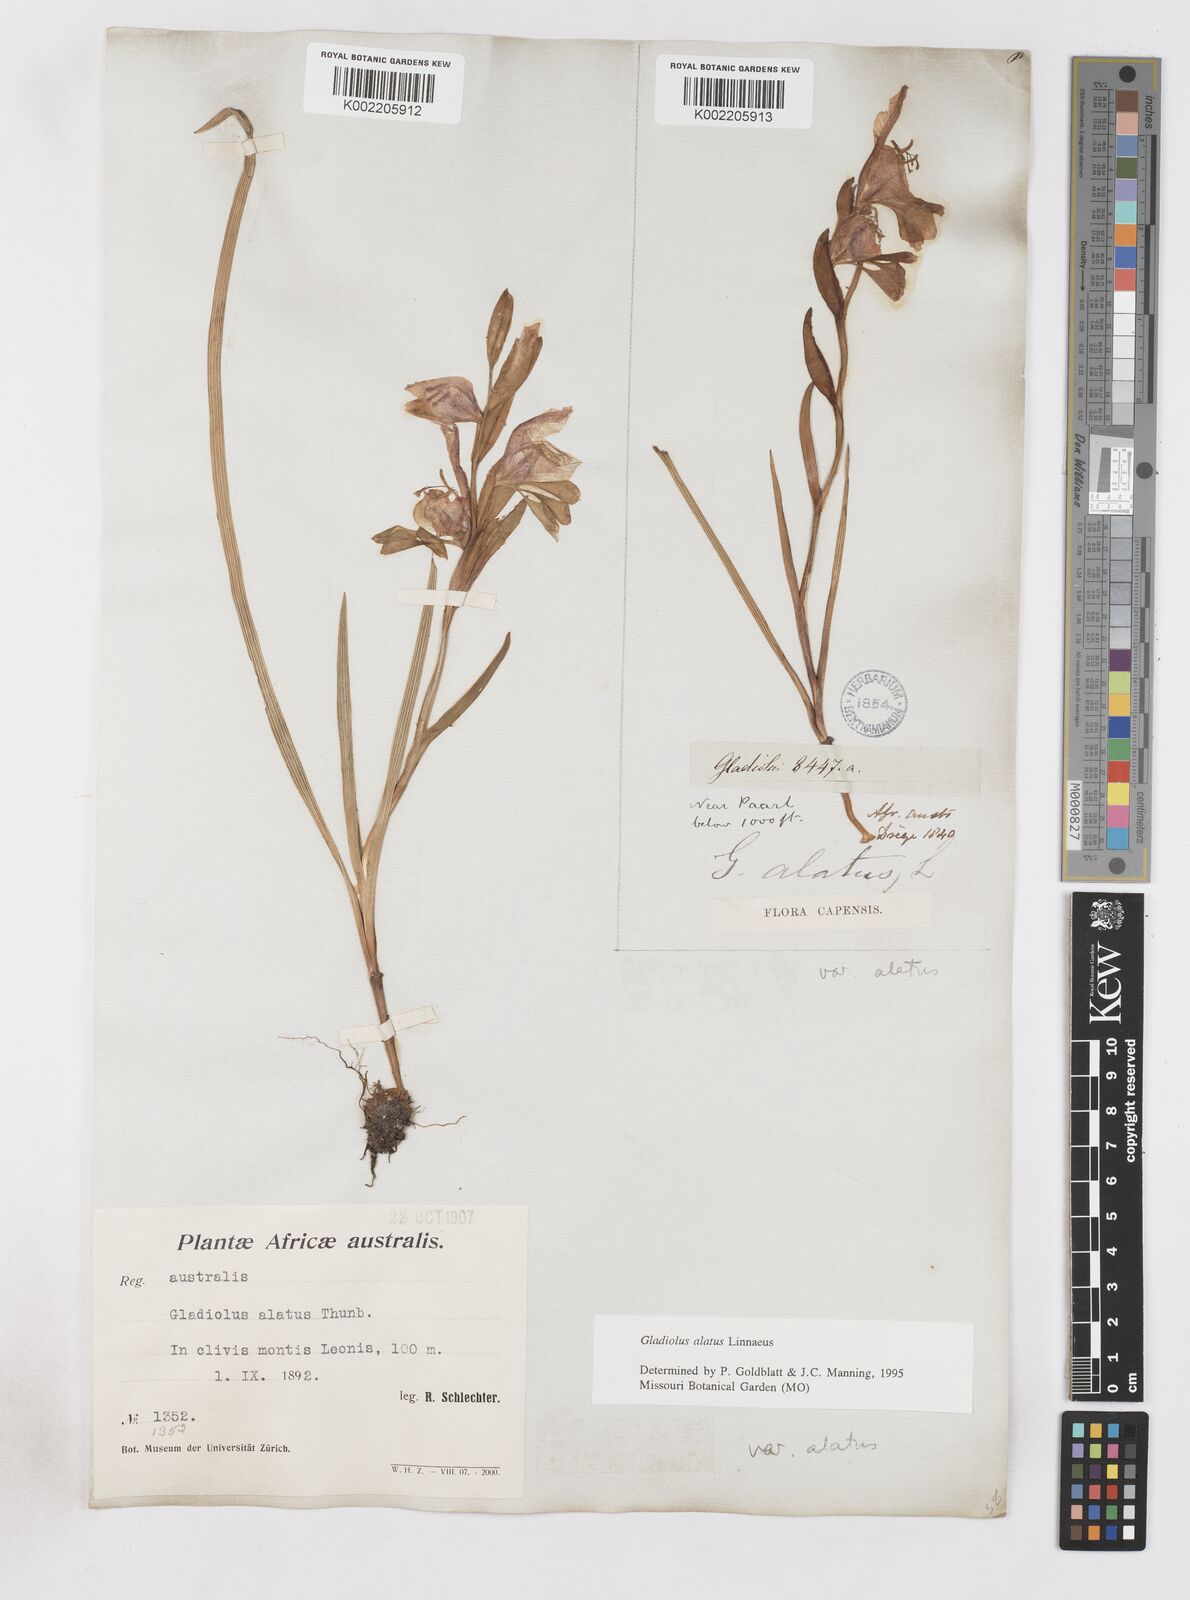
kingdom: Plantae
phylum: Tracheophyta
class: Liliopsida
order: Asparagales
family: Iridaceae
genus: Gladiolus
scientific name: Gladiolus alatus
